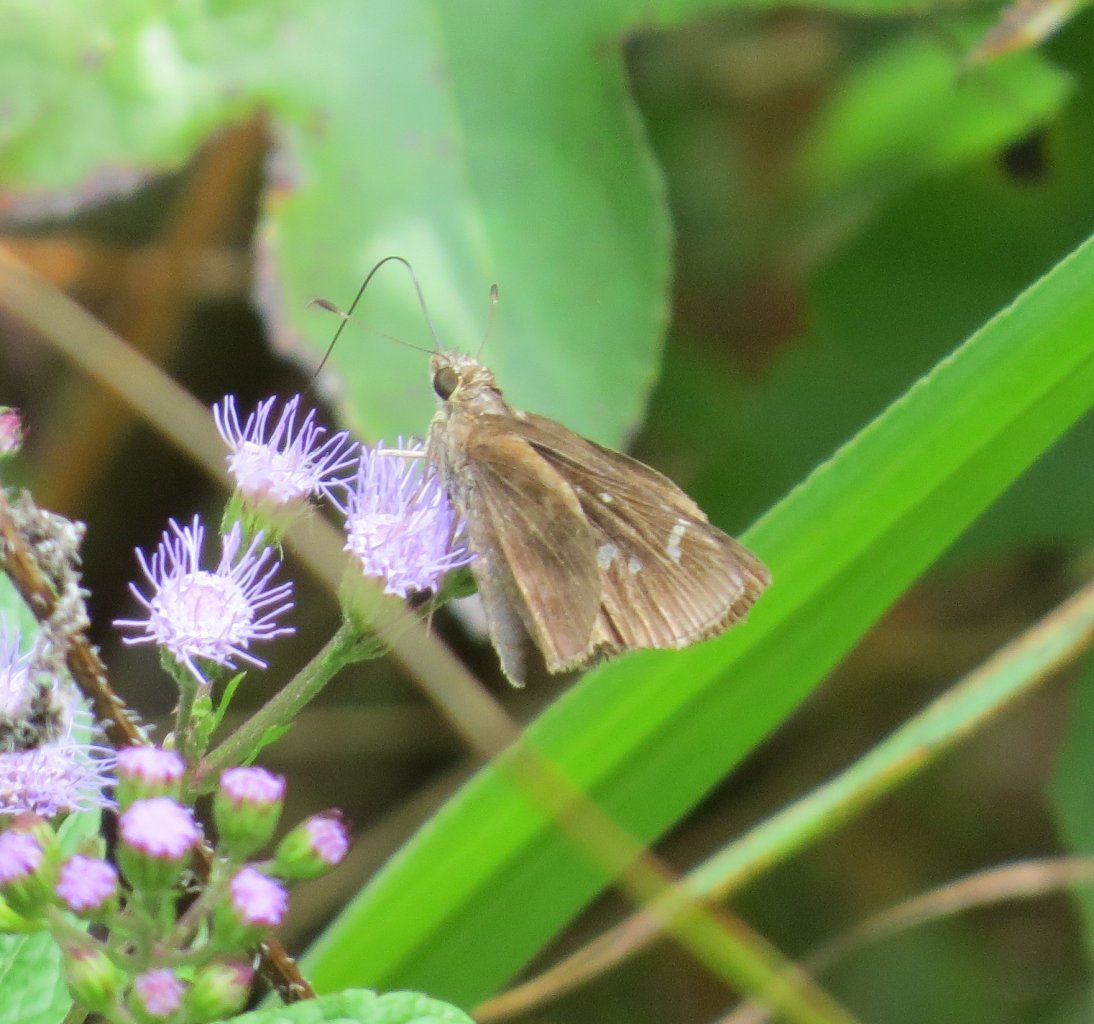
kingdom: Animalia
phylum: Arthropoda
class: Insecta
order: Lepidoptera
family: Hesperiidae
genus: Lerema
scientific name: Lerema accius
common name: Clouded Skipper
